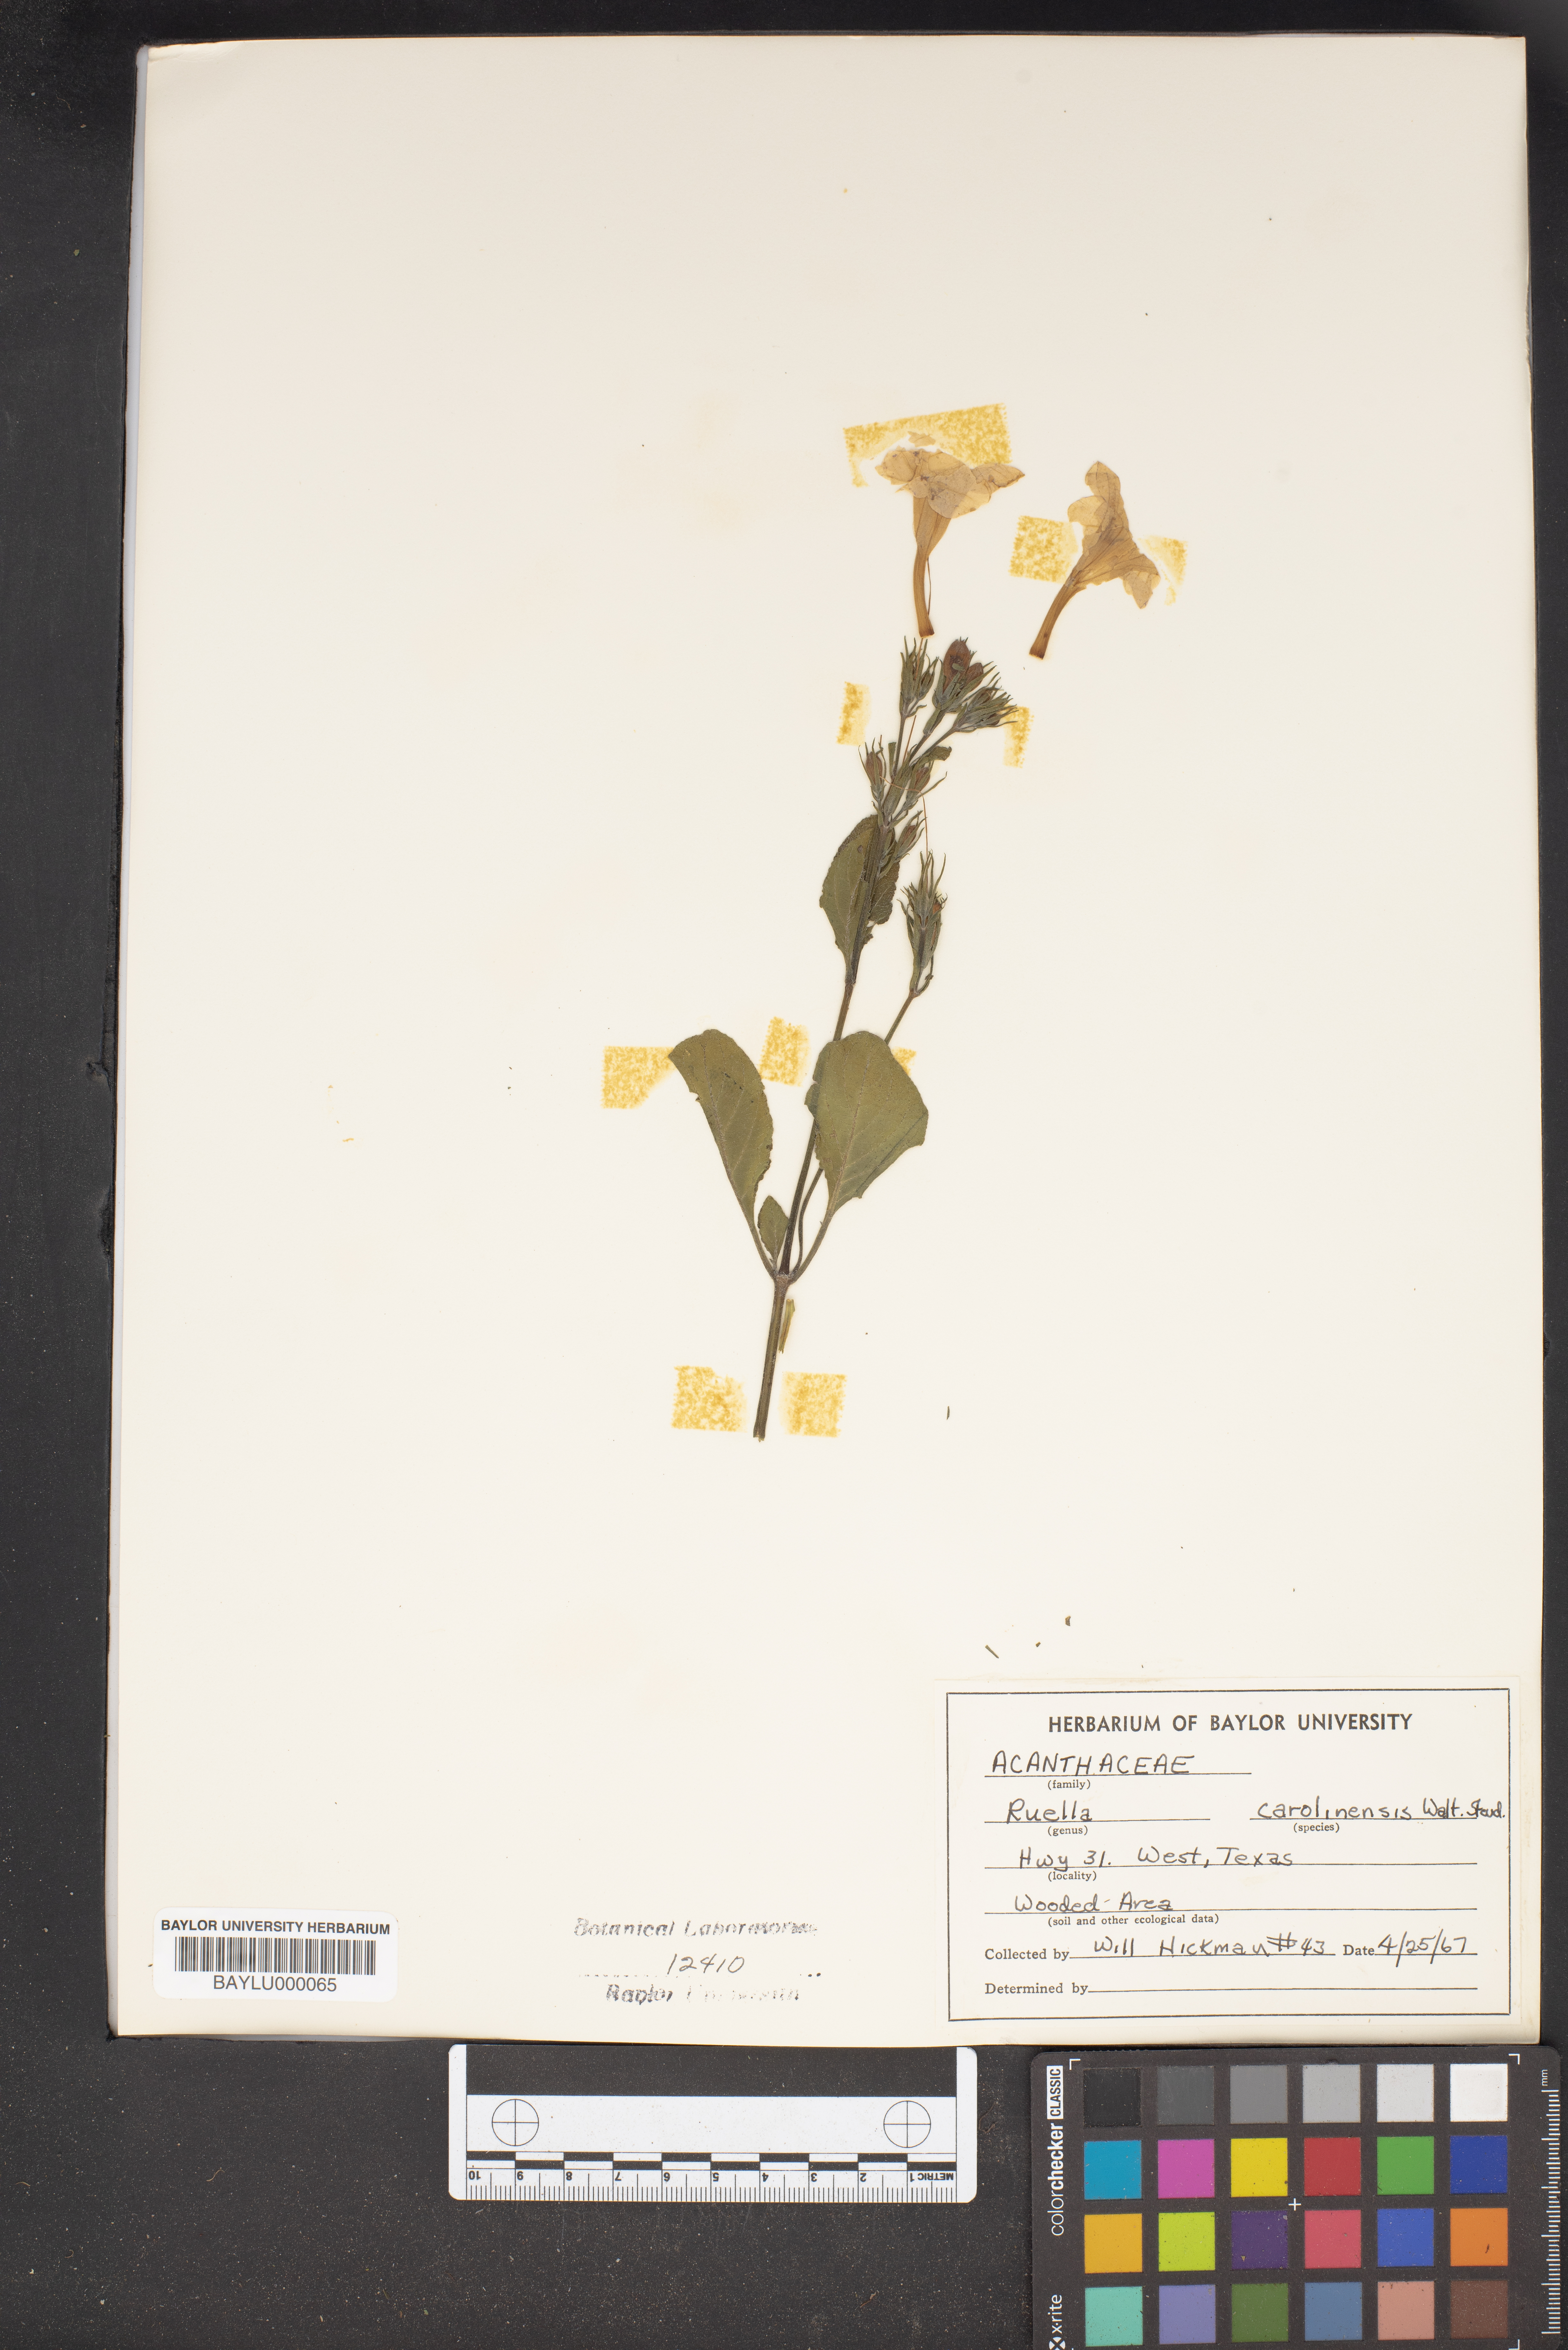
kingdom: Plantae
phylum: Tracheophyta
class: Magnoliopsida
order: Lamiales
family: Acanthaceae
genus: Ruellia
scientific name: Ruellia caroliniensis
